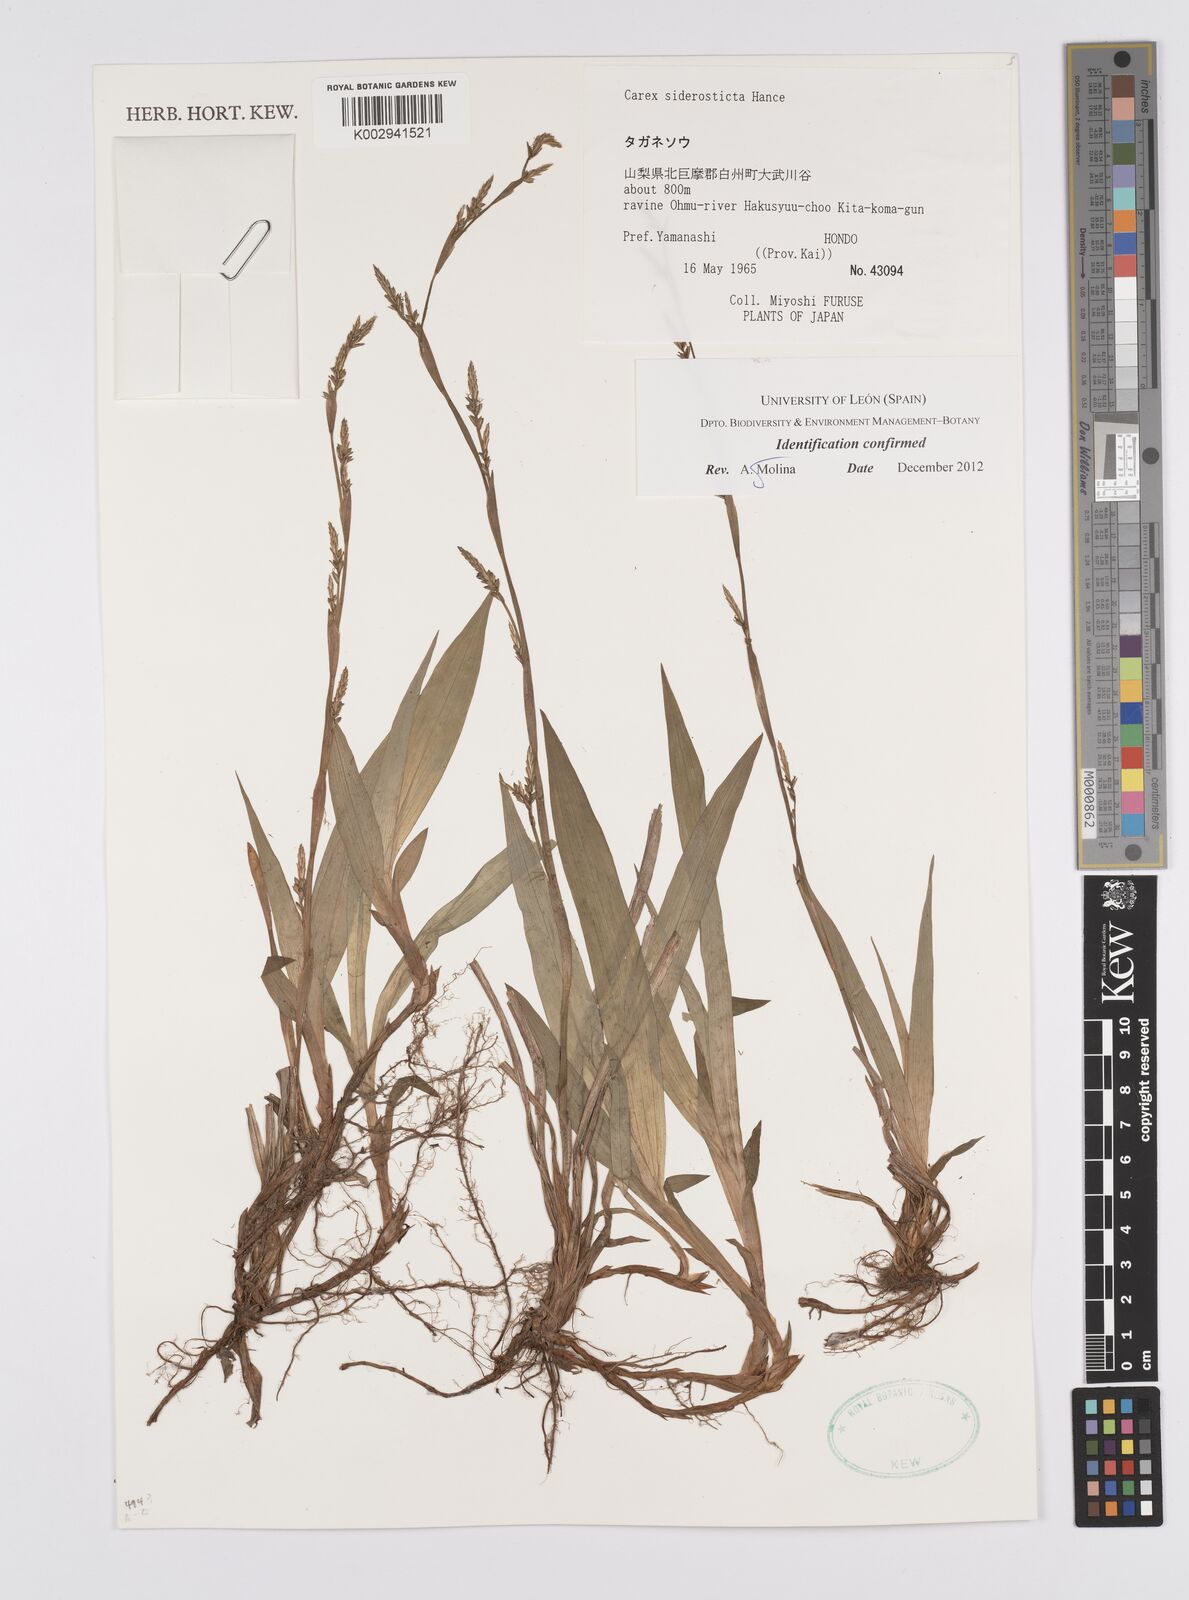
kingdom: Plantae
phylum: Tracheophyta
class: Liliopsida
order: Poales
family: Cyperaceae
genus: Carex
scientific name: Carex siderosticta
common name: Broadleaf sedge
